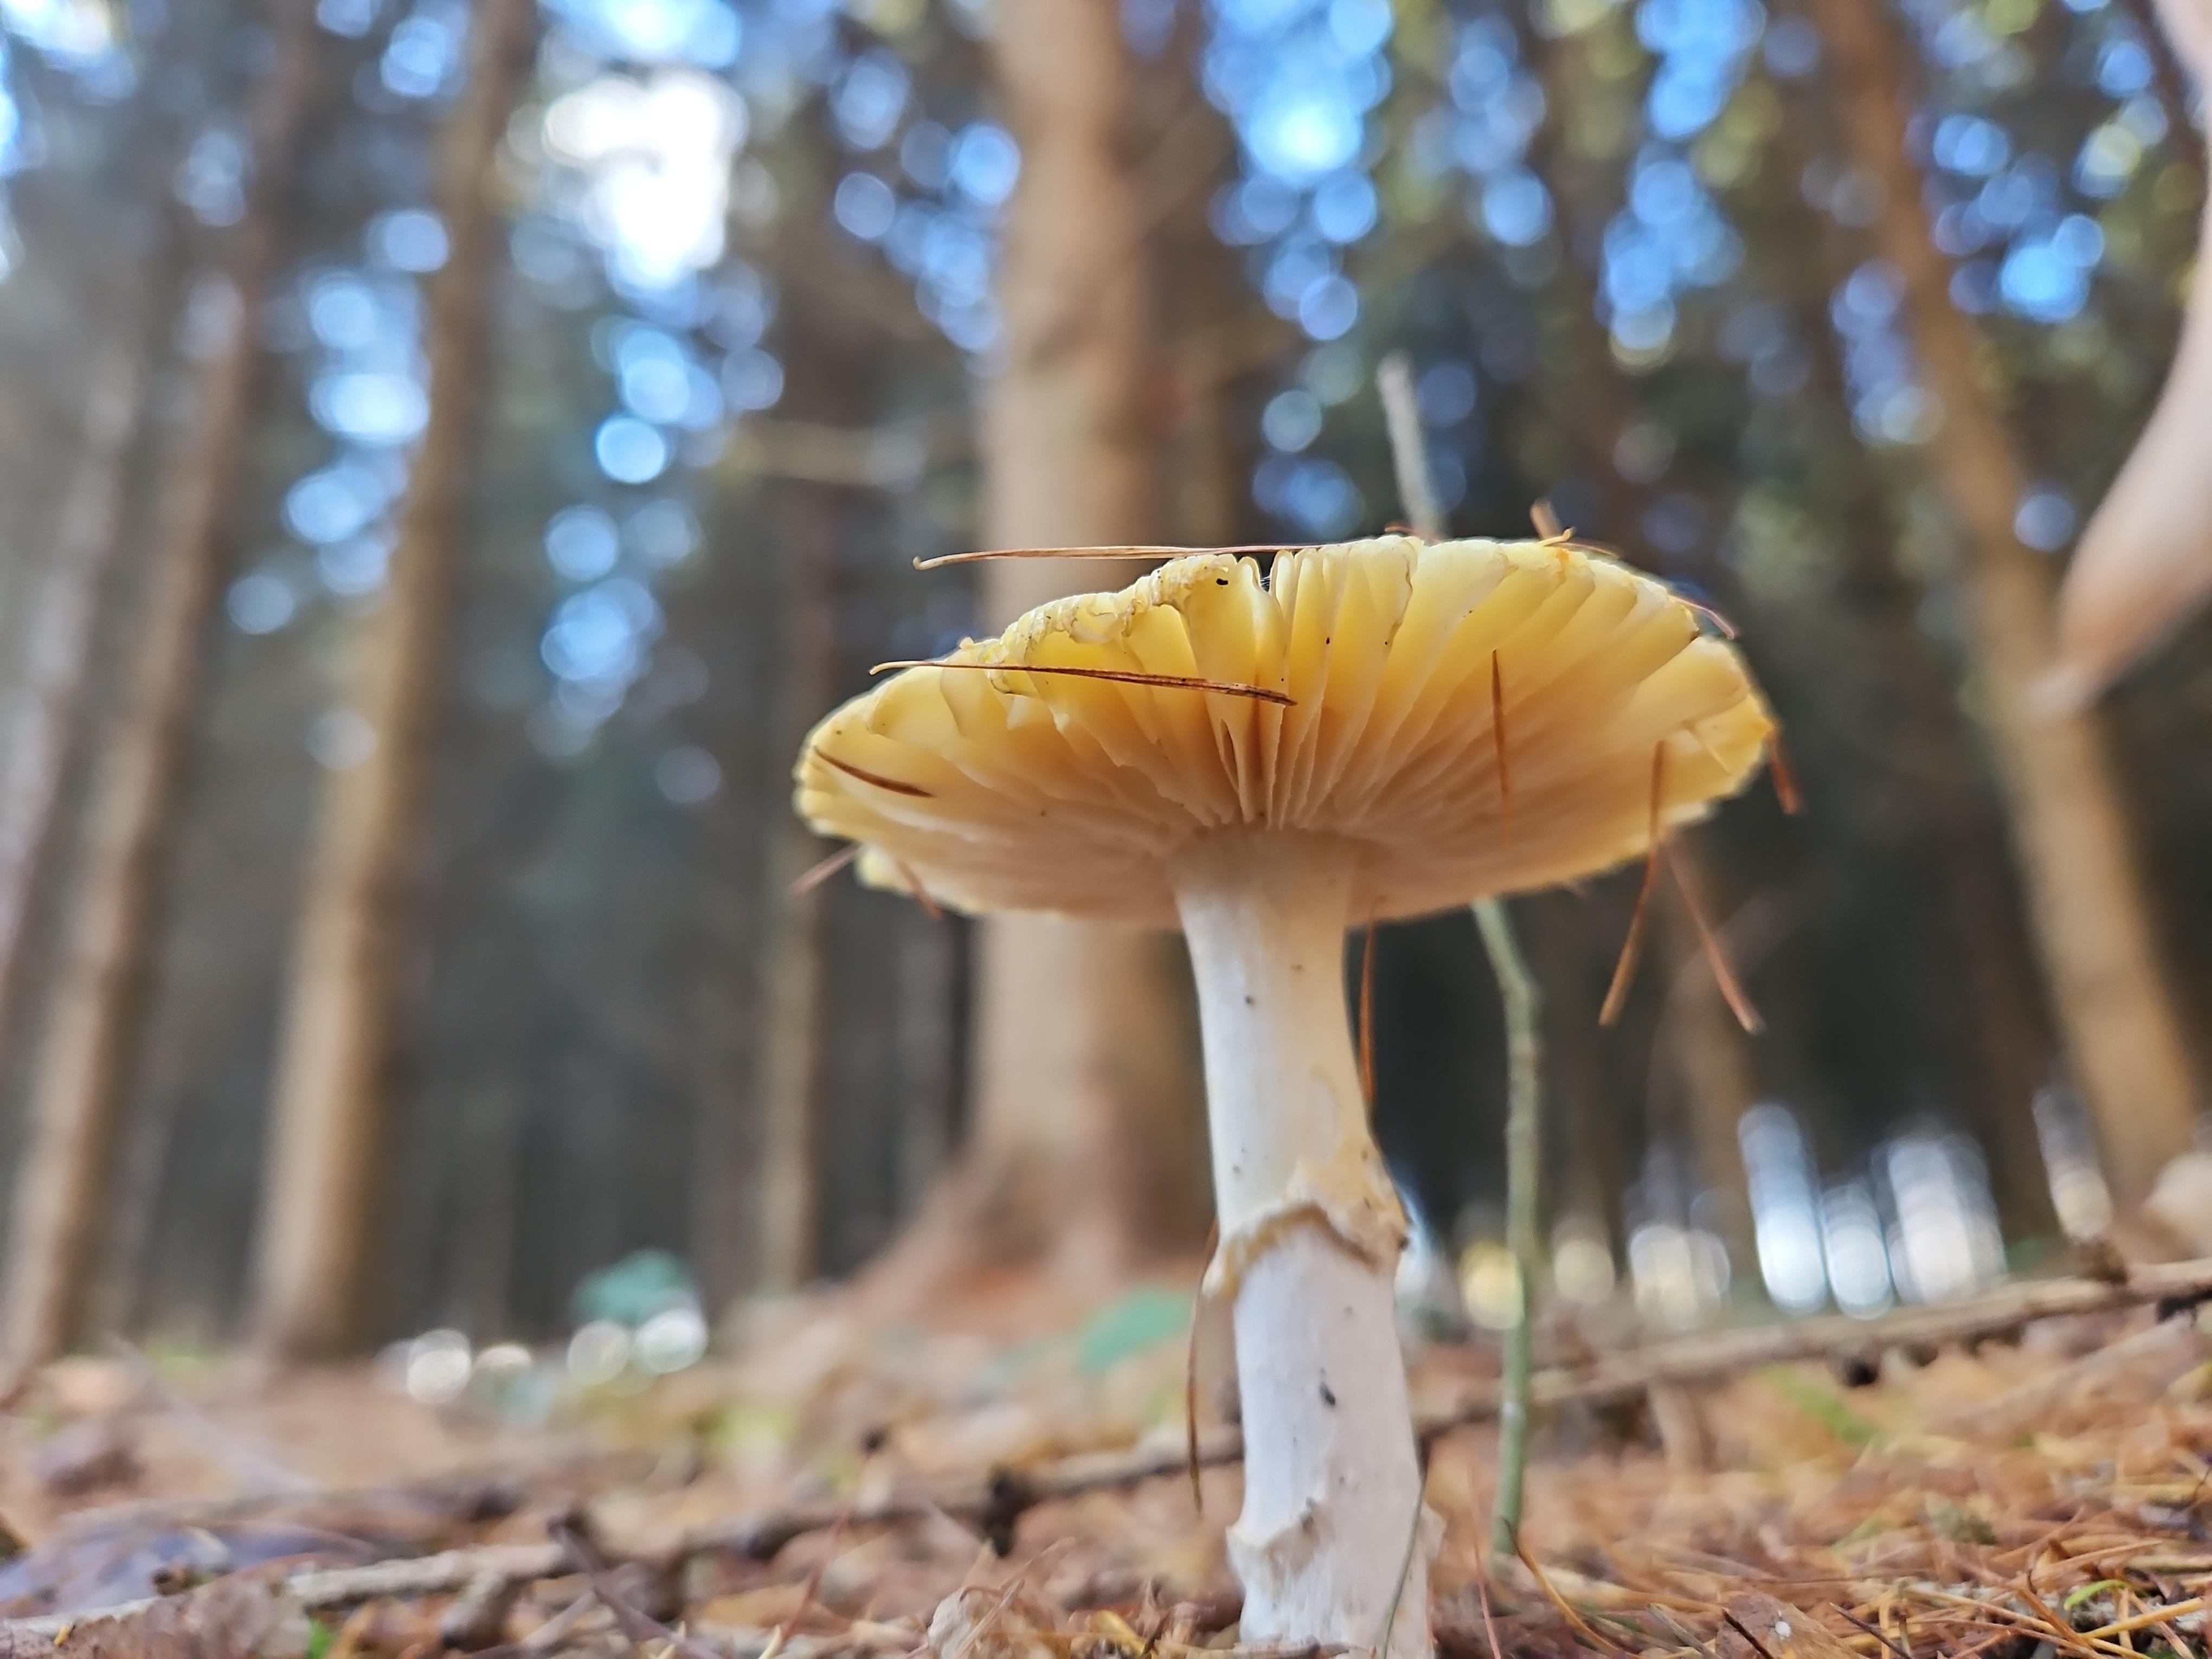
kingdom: Fungi
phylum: Basidiomycota
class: Agaricomycetes
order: Agaricales
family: Amanitaceae
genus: Amanita
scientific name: Amanita muscaria
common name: rød fluesvamp
